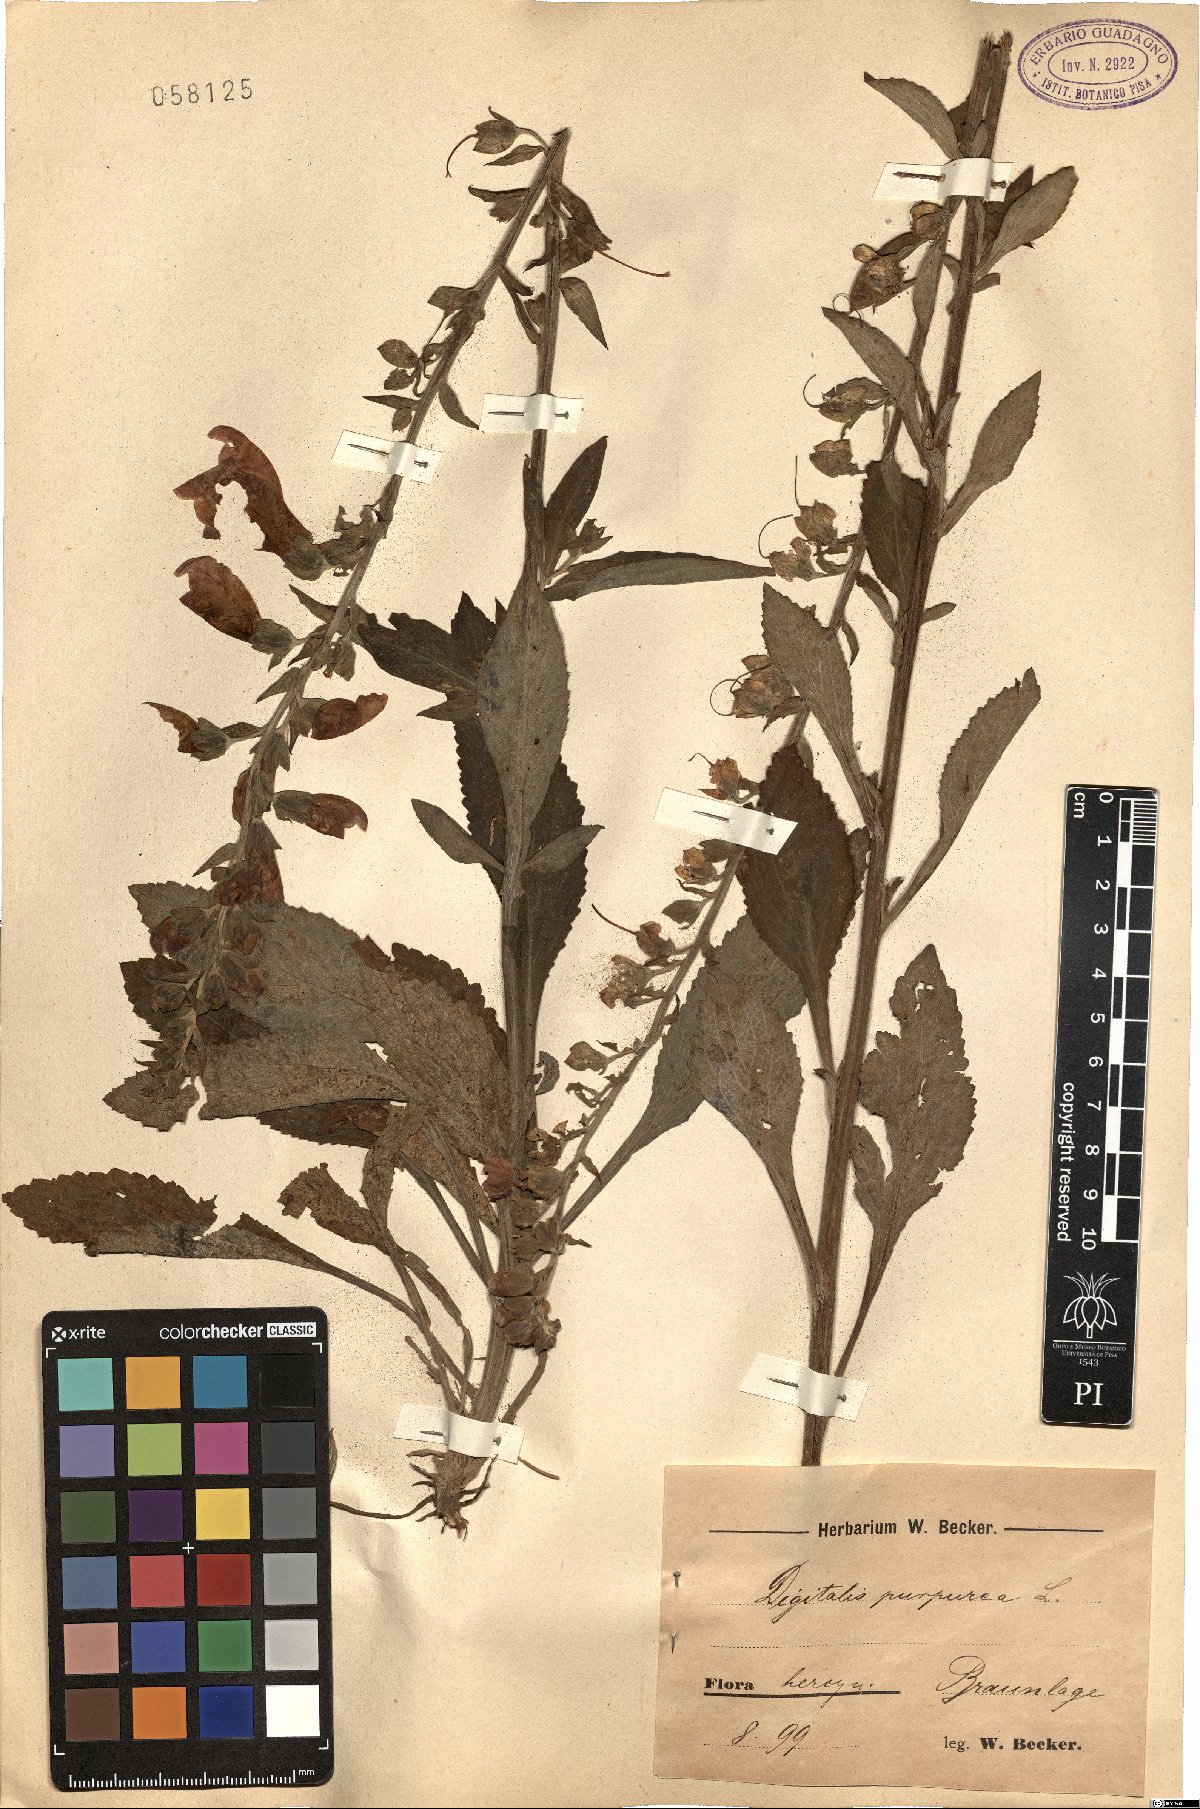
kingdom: Plantae
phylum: Tracheophyta
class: Magnoliopsida
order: Lamiales
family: Plantaginaceae
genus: Digitalis
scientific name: Digitalis purpurea
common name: Foxglove
